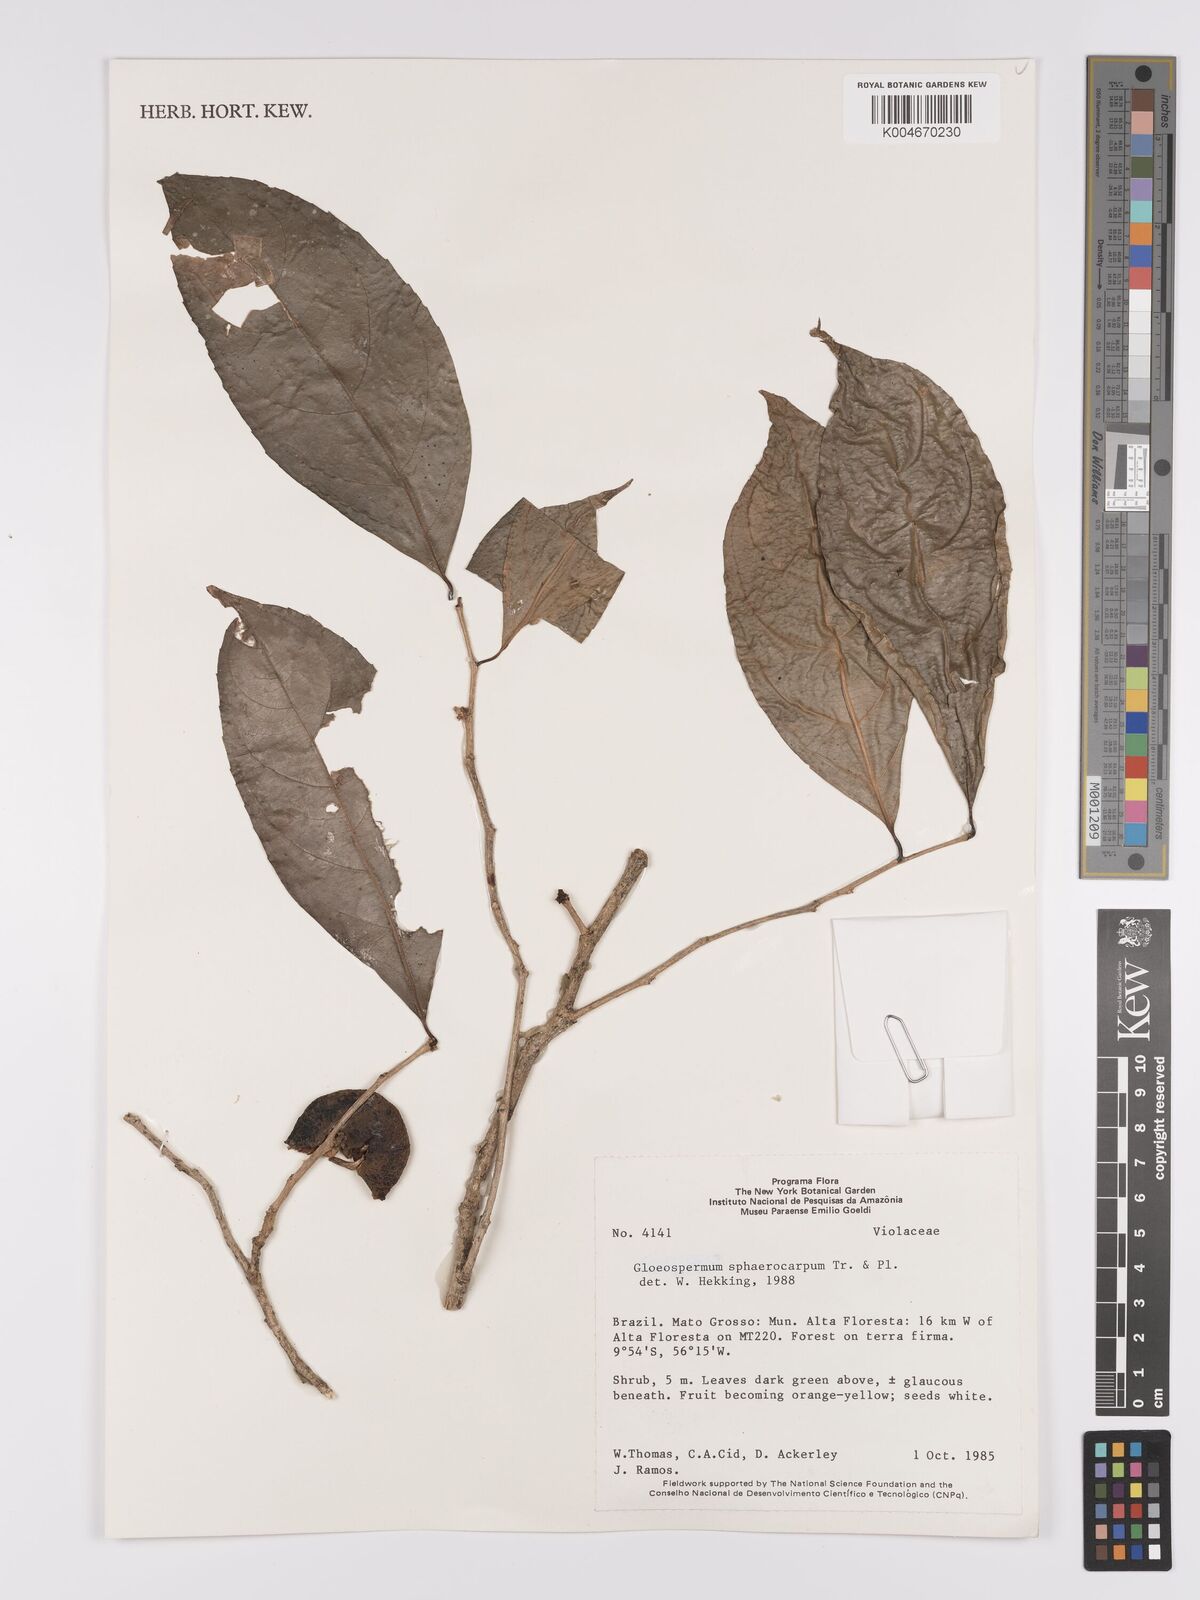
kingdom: Plantae
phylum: Tracheophyta
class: Magnoliopsida
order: Malpighiales
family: Violaceae
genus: Gloeospermum
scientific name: Gloeospermum sphaerocarpum
